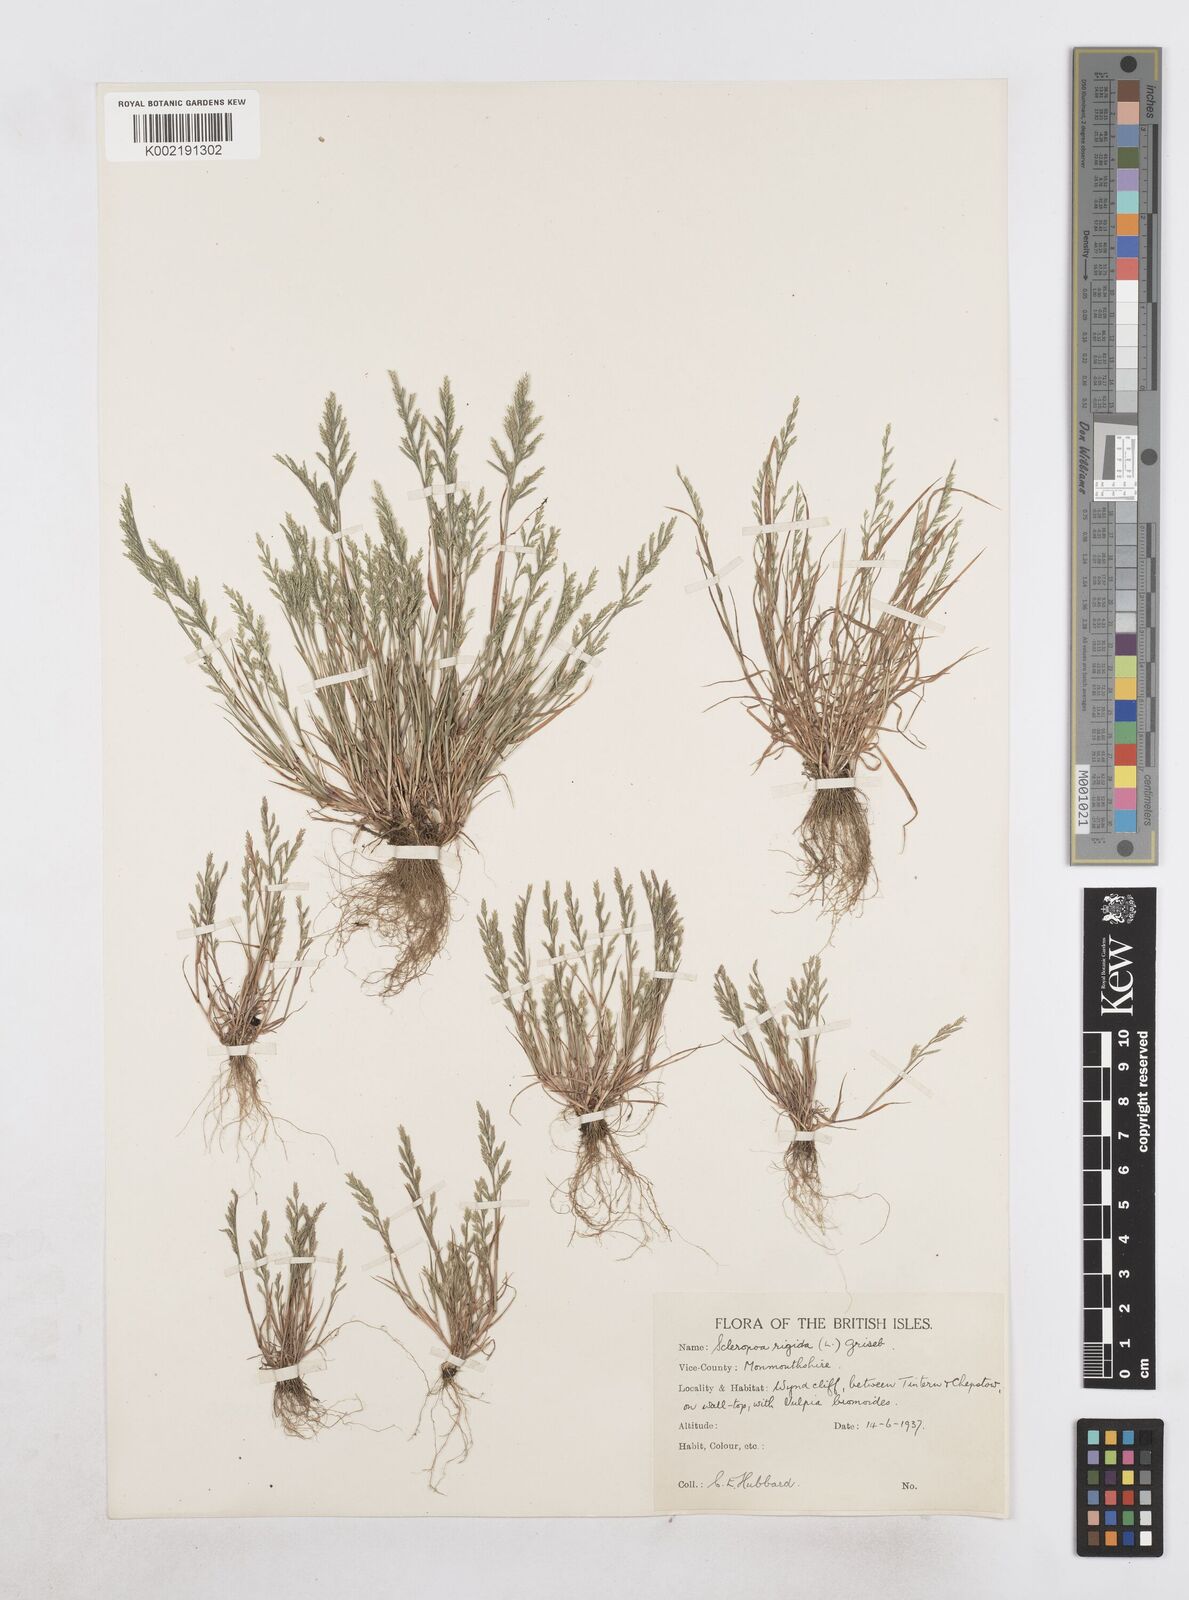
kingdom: Plantae
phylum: Tracheophyta
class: Liliopsida
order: Poales
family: Poaceae
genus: Catapodium
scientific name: Catapodium rigidum
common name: Fern-grass
